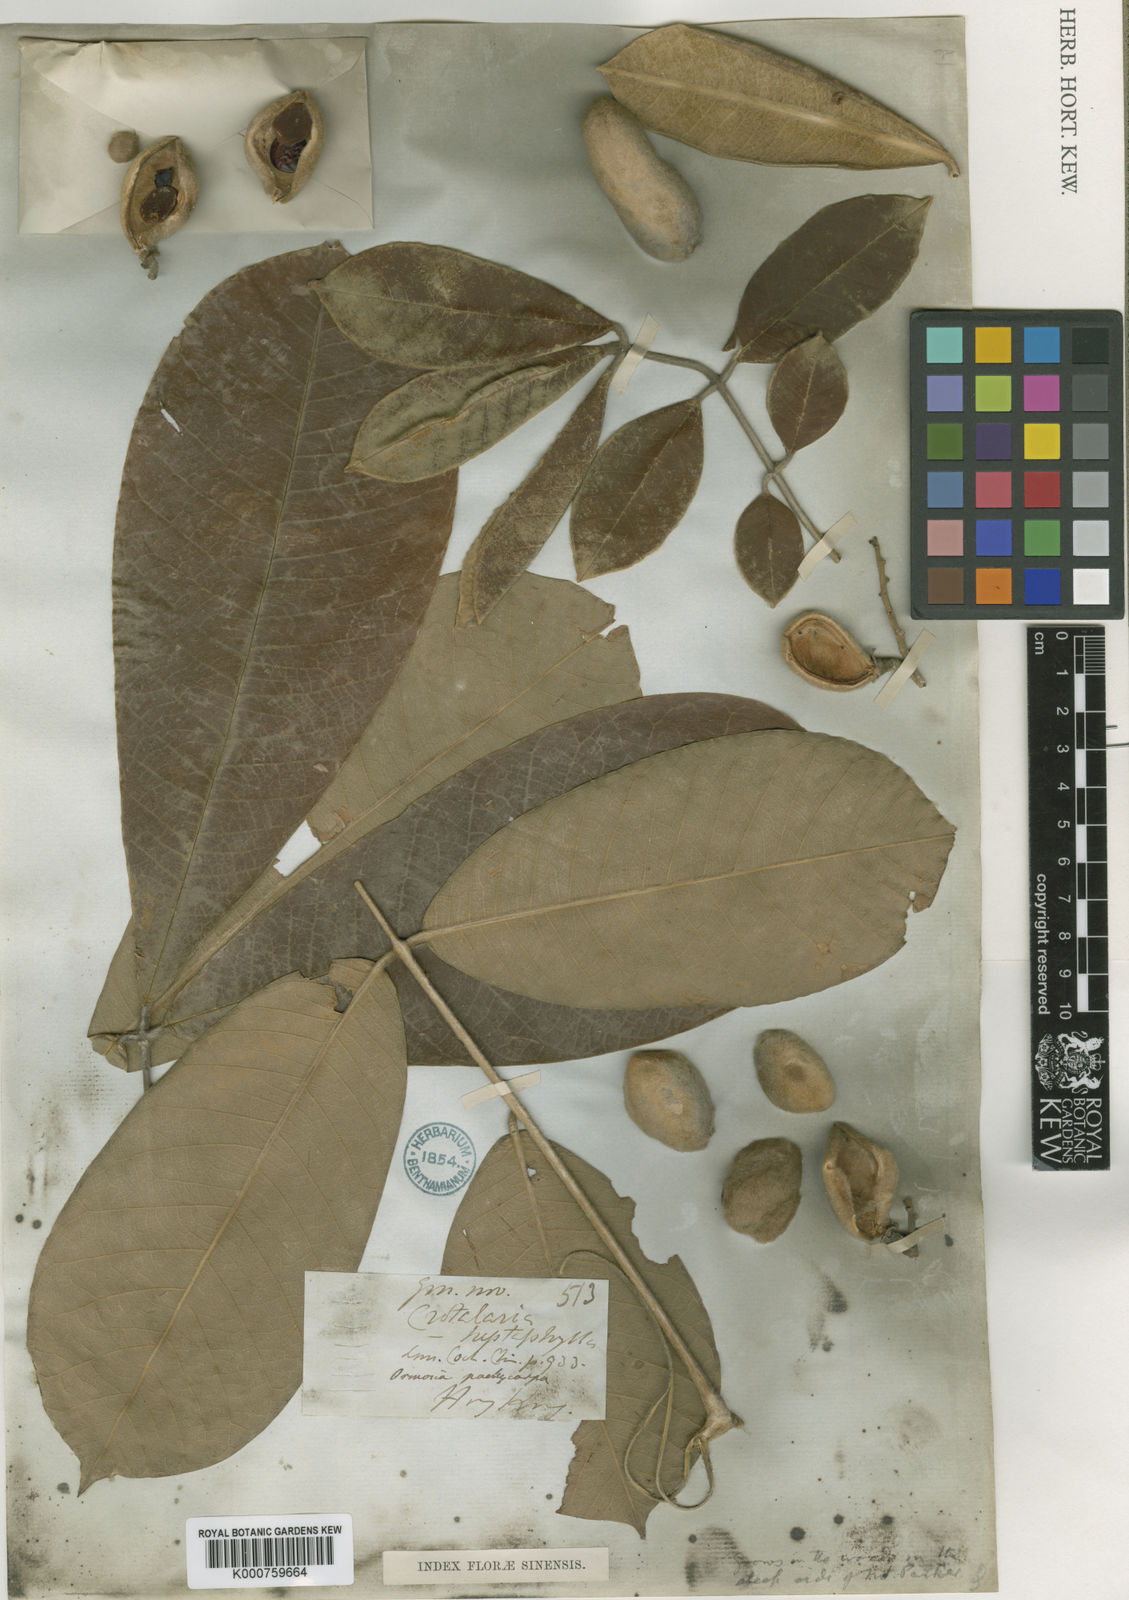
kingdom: Plantae
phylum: Tracheophyta
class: Magnoliopsida
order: Fabales
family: Fabaceae
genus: Ormosia
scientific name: Ormosia pachycarpa
